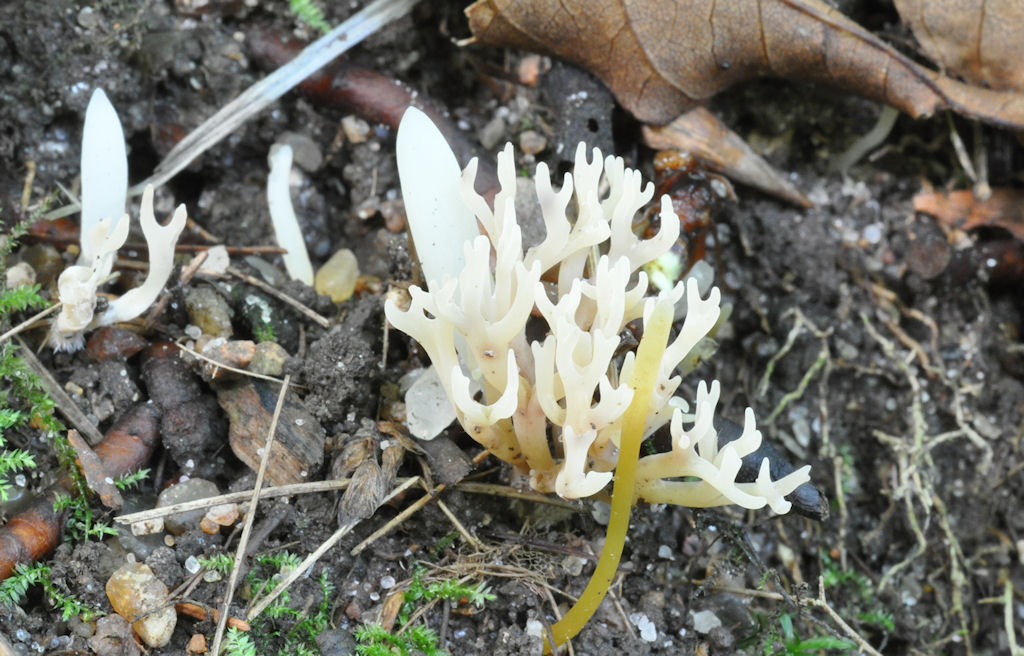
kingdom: Fungi
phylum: Basidiomycota
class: Agaricomycetes
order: Agaricales
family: Clavariaceae
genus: Ramariopsis
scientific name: Ramariopsis
